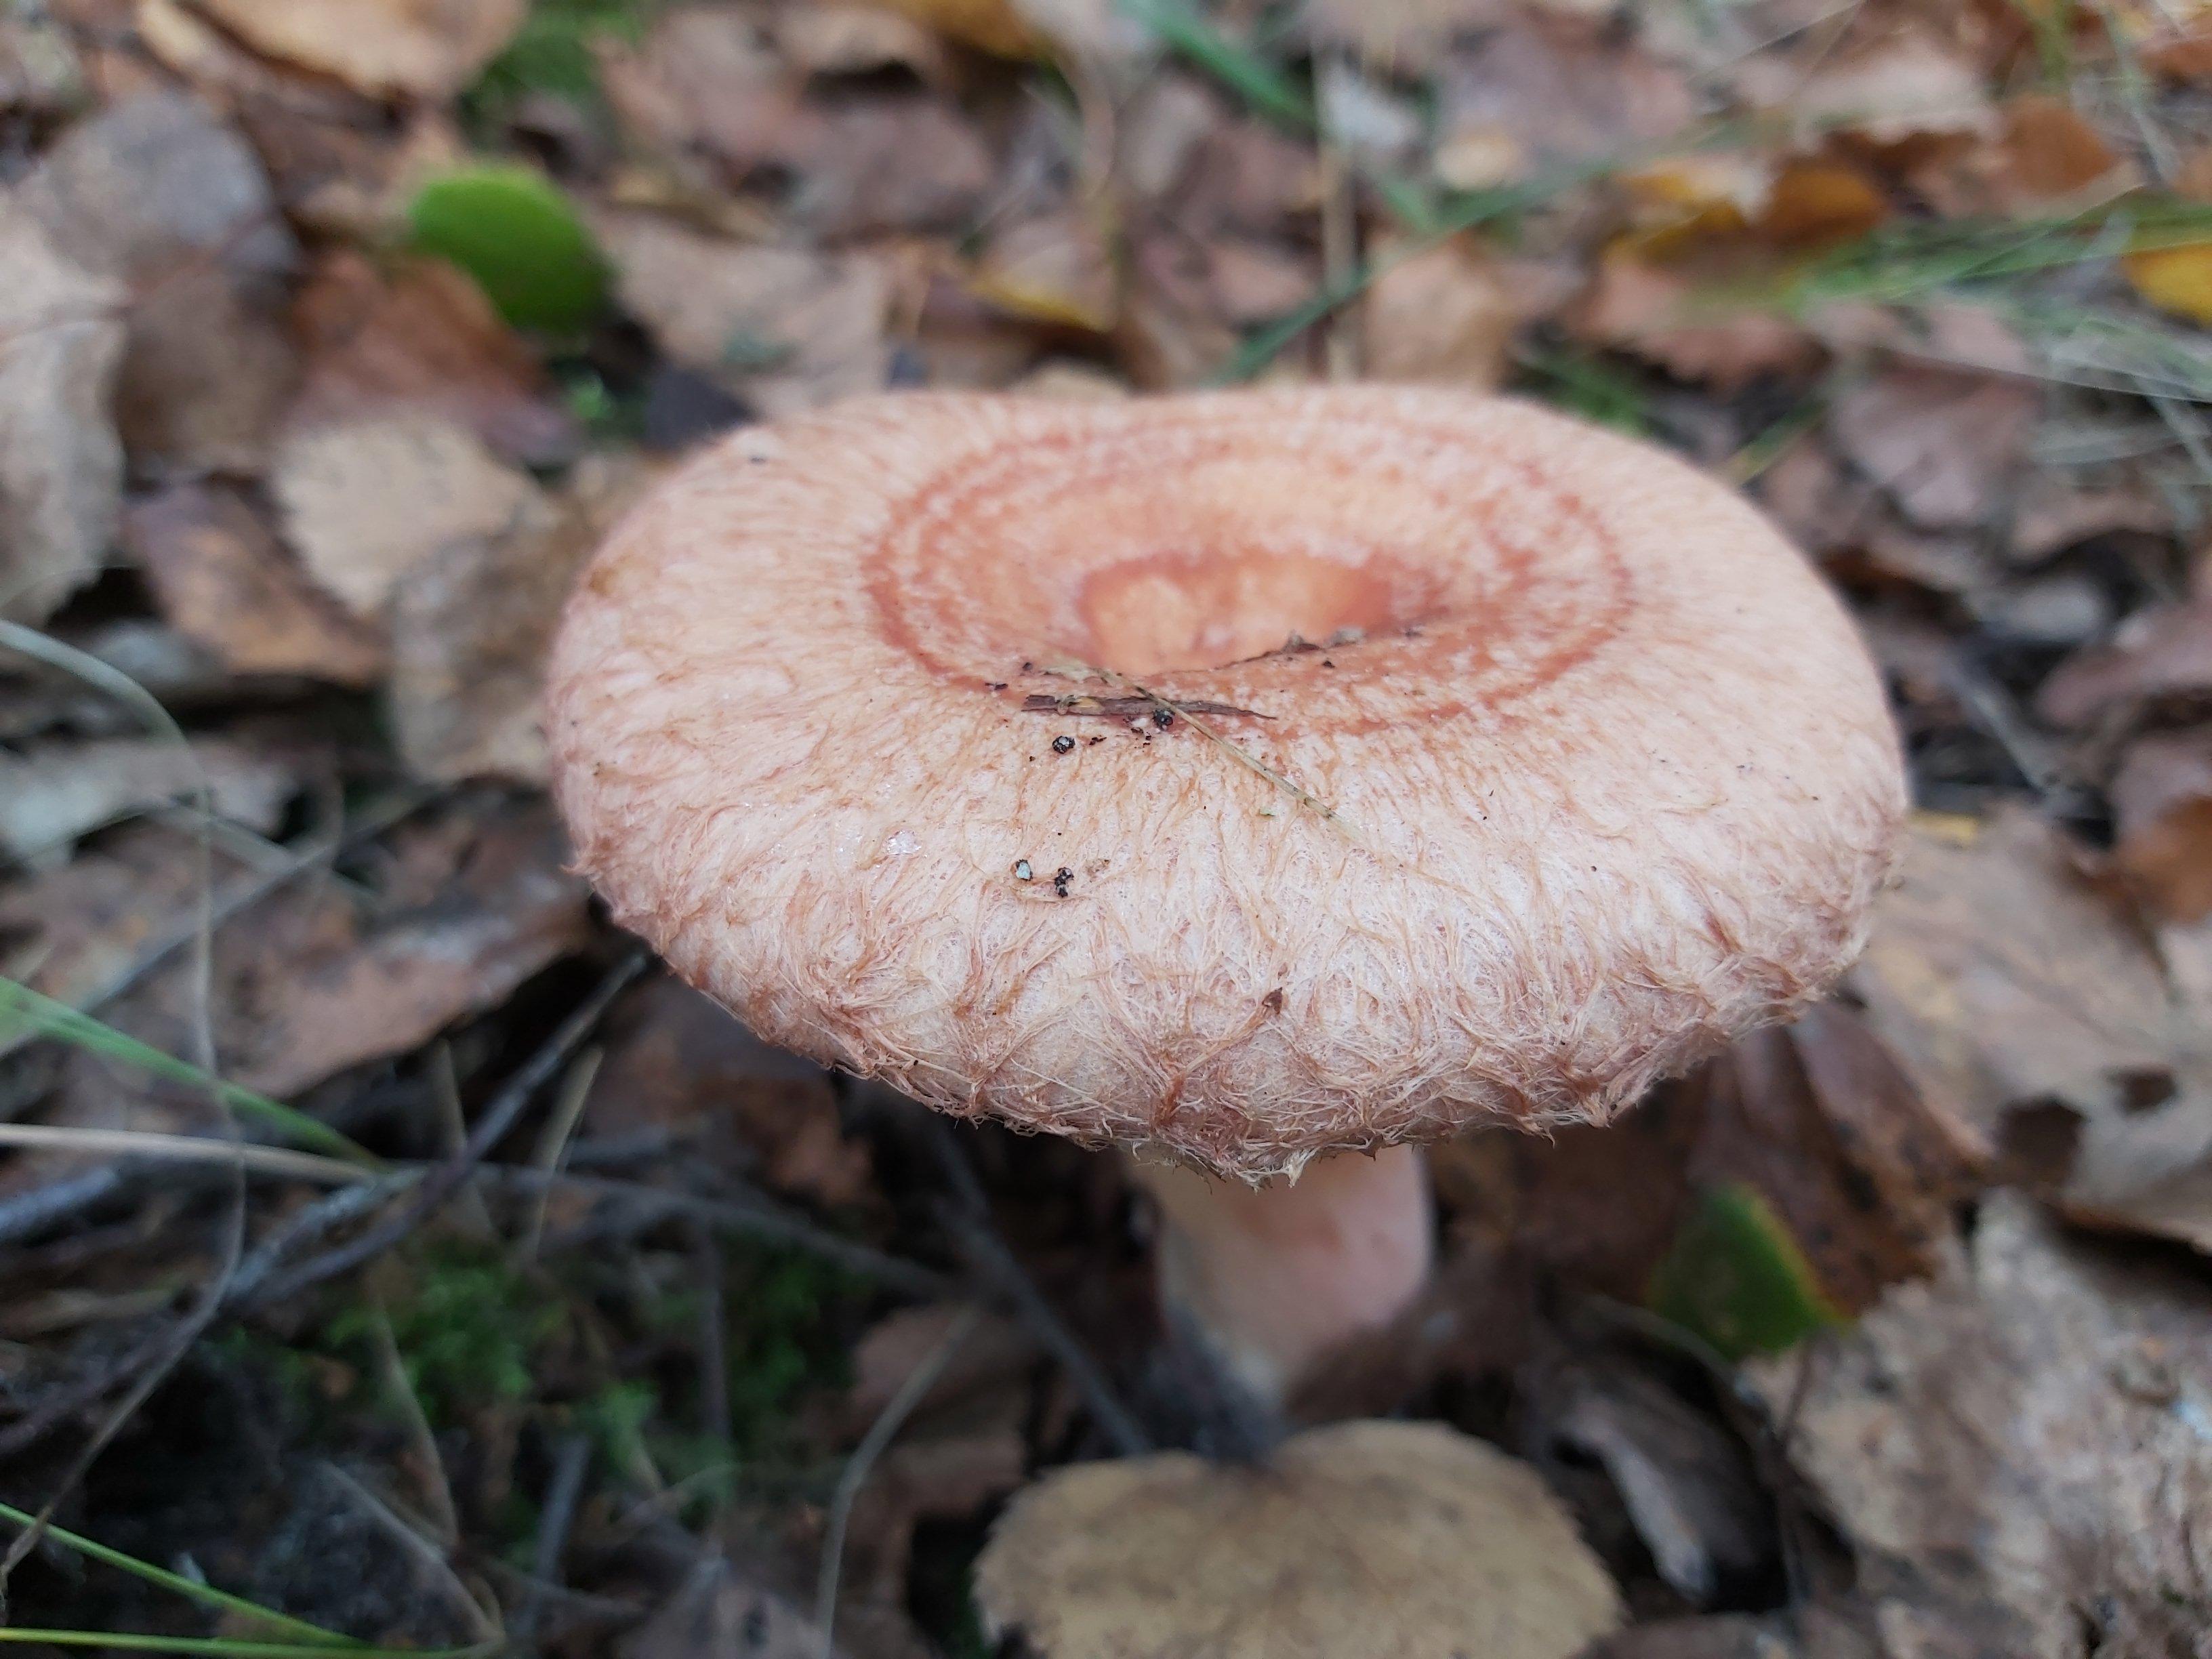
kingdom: Fungi
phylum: Basidiomycota
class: Agaricomycetes
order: Russulales
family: Russulaceae
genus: Lactarius
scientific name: Lactarius torminosus
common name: skægget mælkehat
